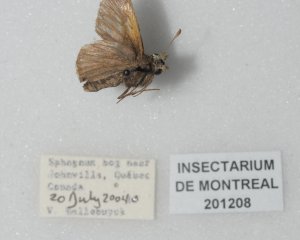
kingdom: Animalia
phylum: Arthropoda
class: Insecta
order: Lepidoptera
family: Hesperiidae
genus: Polites
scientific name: Polites themistocles
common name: Tawny-edged Skipper
